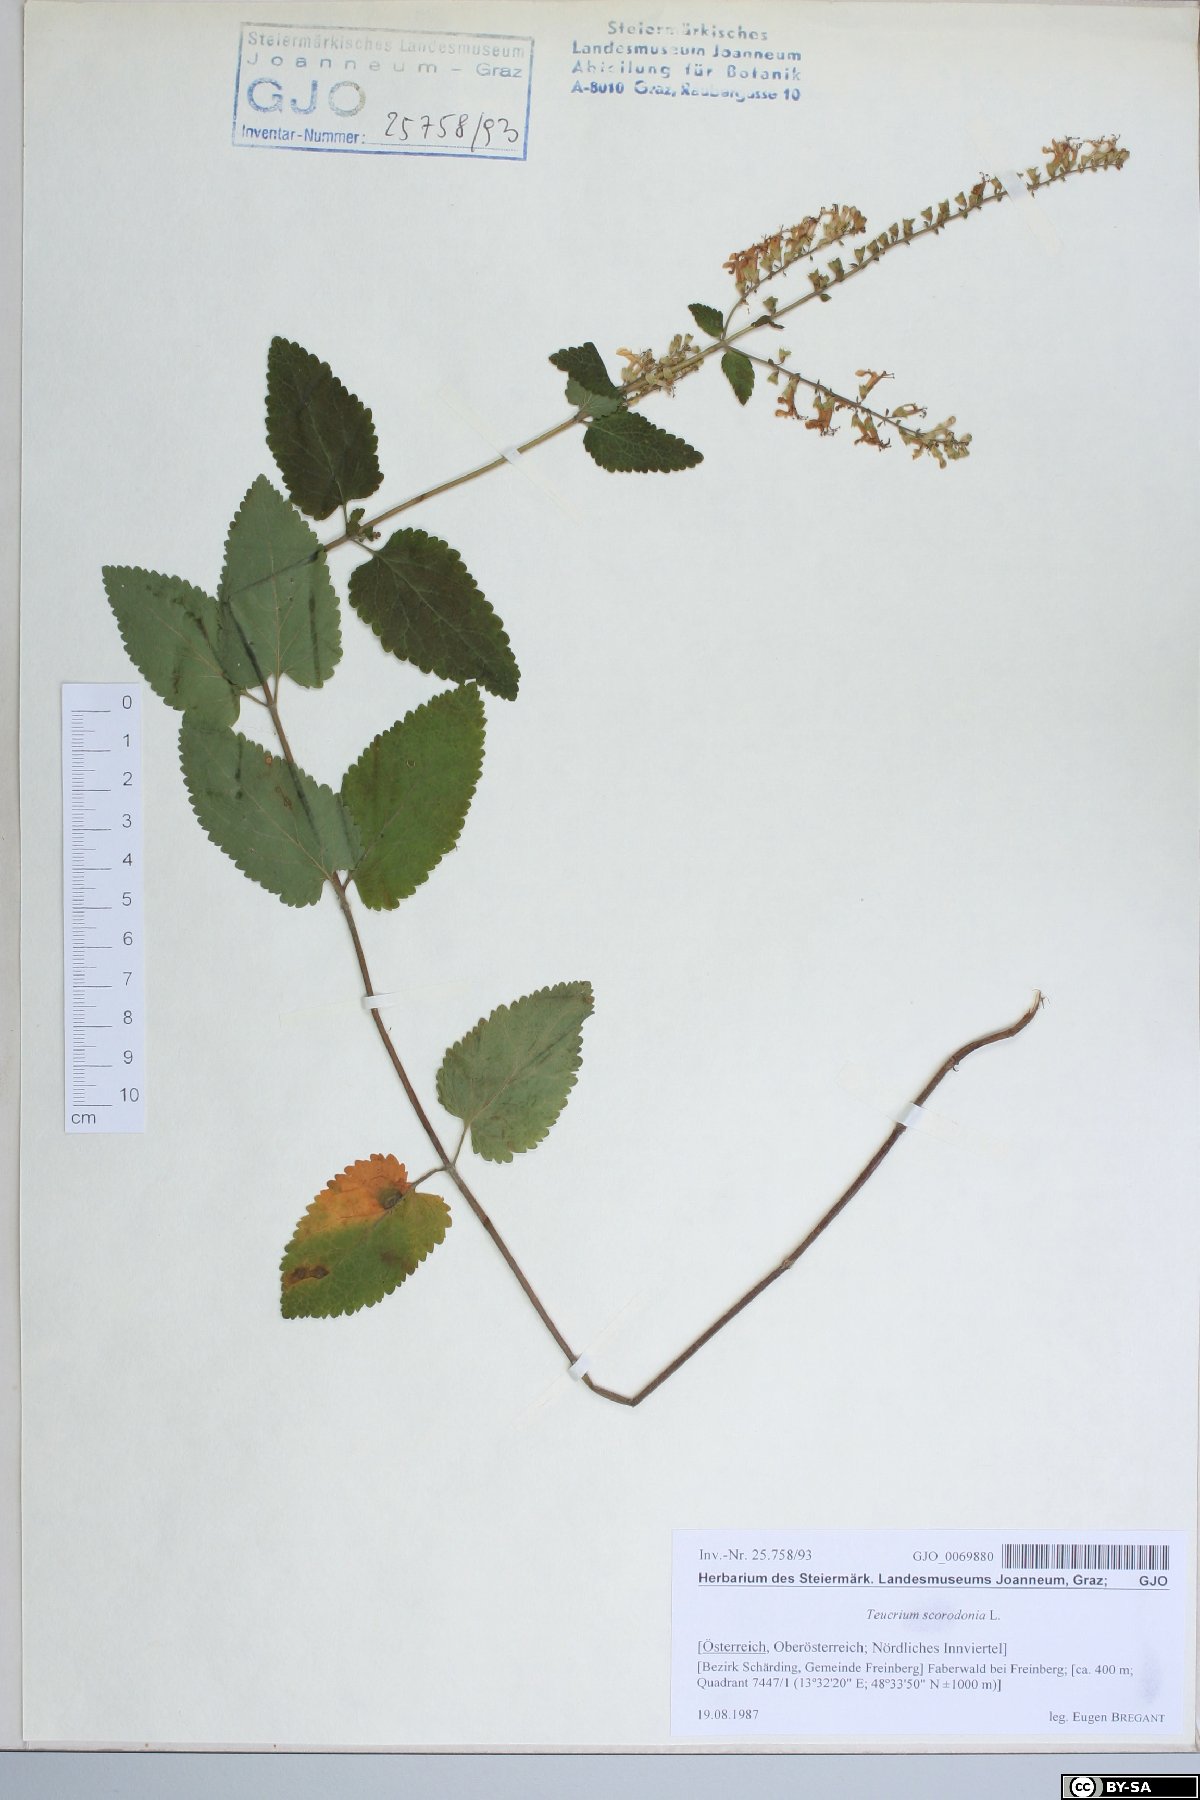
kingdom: Plantae
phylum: Tracheophyta
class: Magnoliopsida
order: Lamiales
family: Lamiaceae
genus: Teucrium
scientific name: Teucrium scorodonia
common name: Woodland germander
